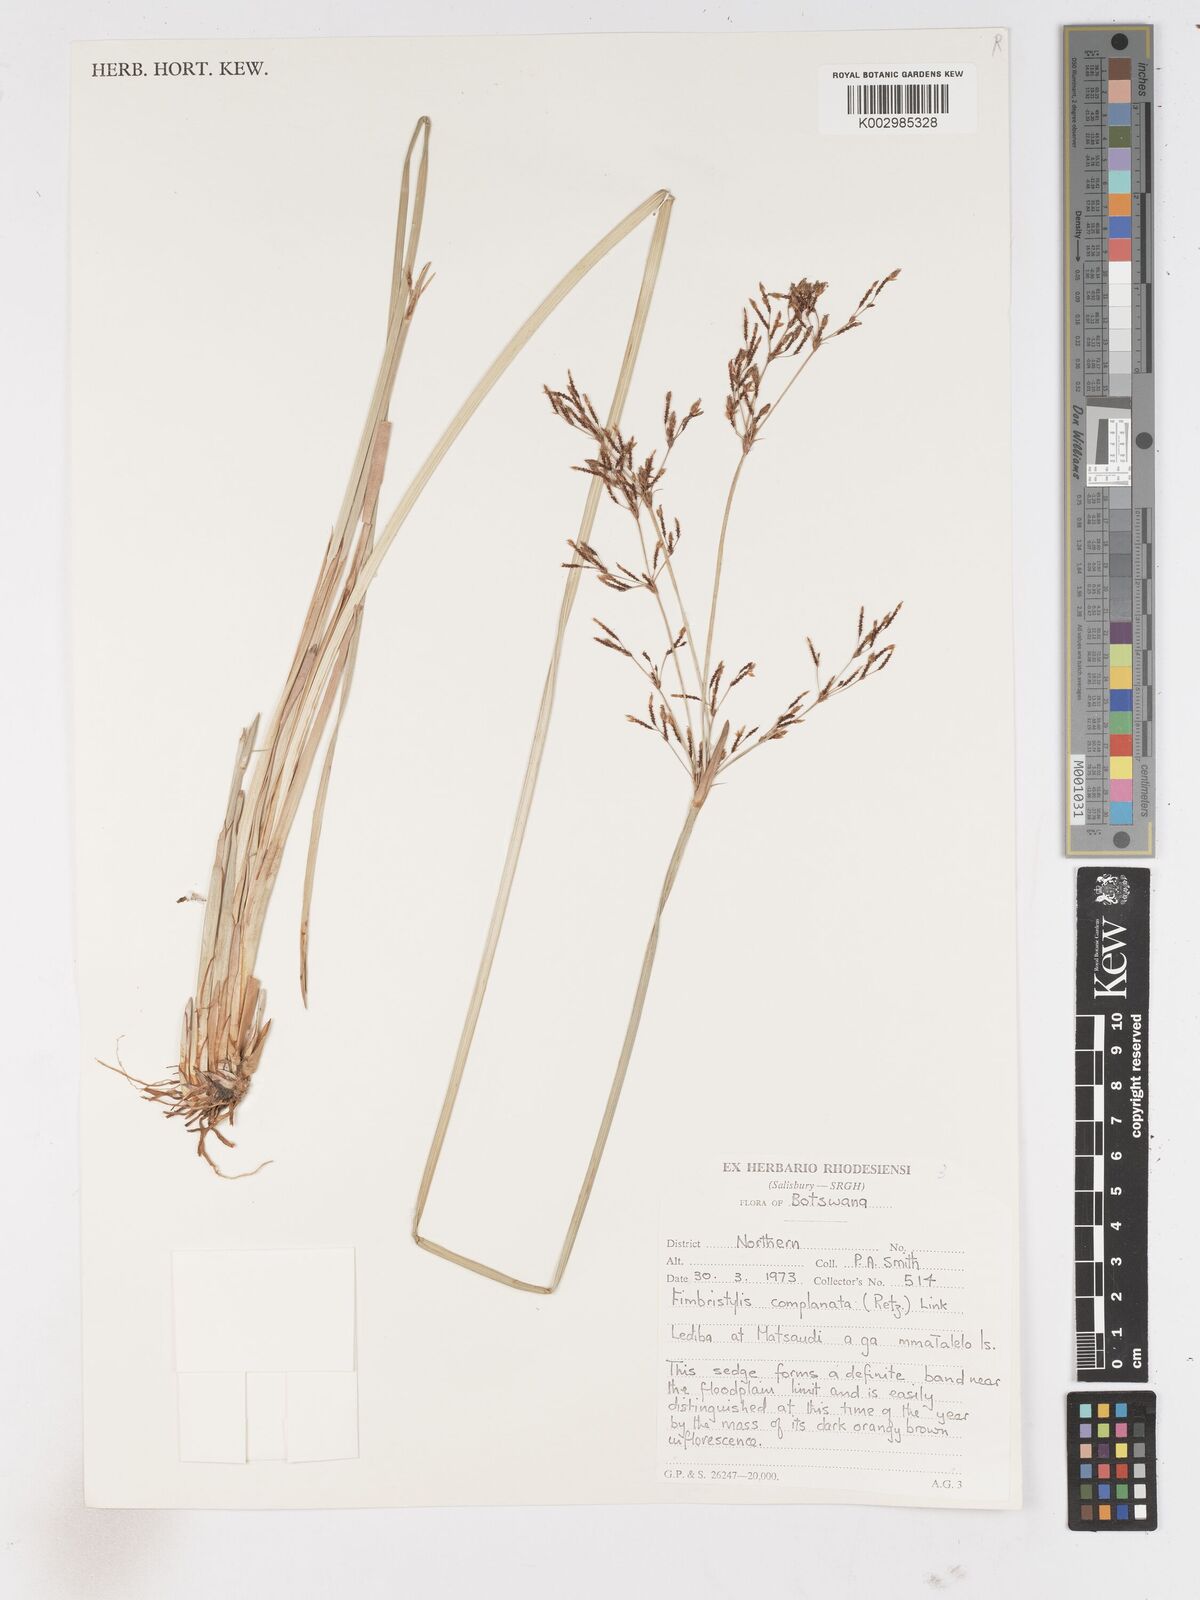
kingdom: Plantae
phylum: Tracheophyta
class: Liliopsida
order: Poales
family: Cyperaceae
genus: Fimbristylis
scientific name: Fimbristylis complanata
